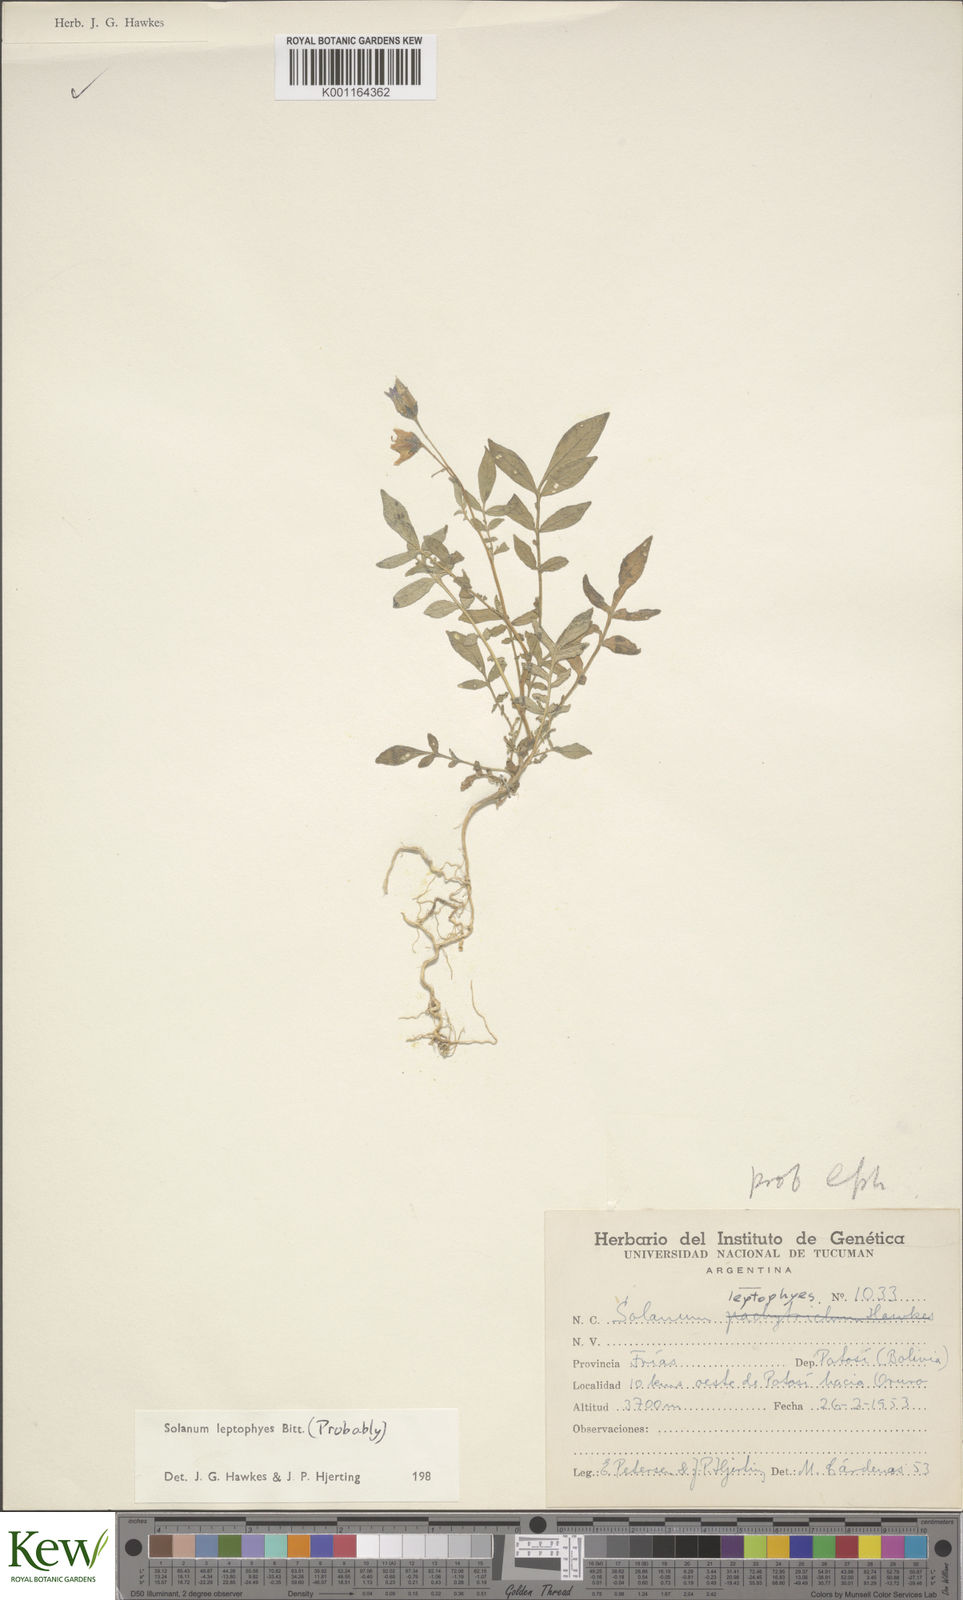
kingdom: Plantae
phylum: Tracheophyta
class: Magnoliopsida
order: Solanales
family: Solanaceae
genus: Solanum
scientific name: Solanum brevicaule
